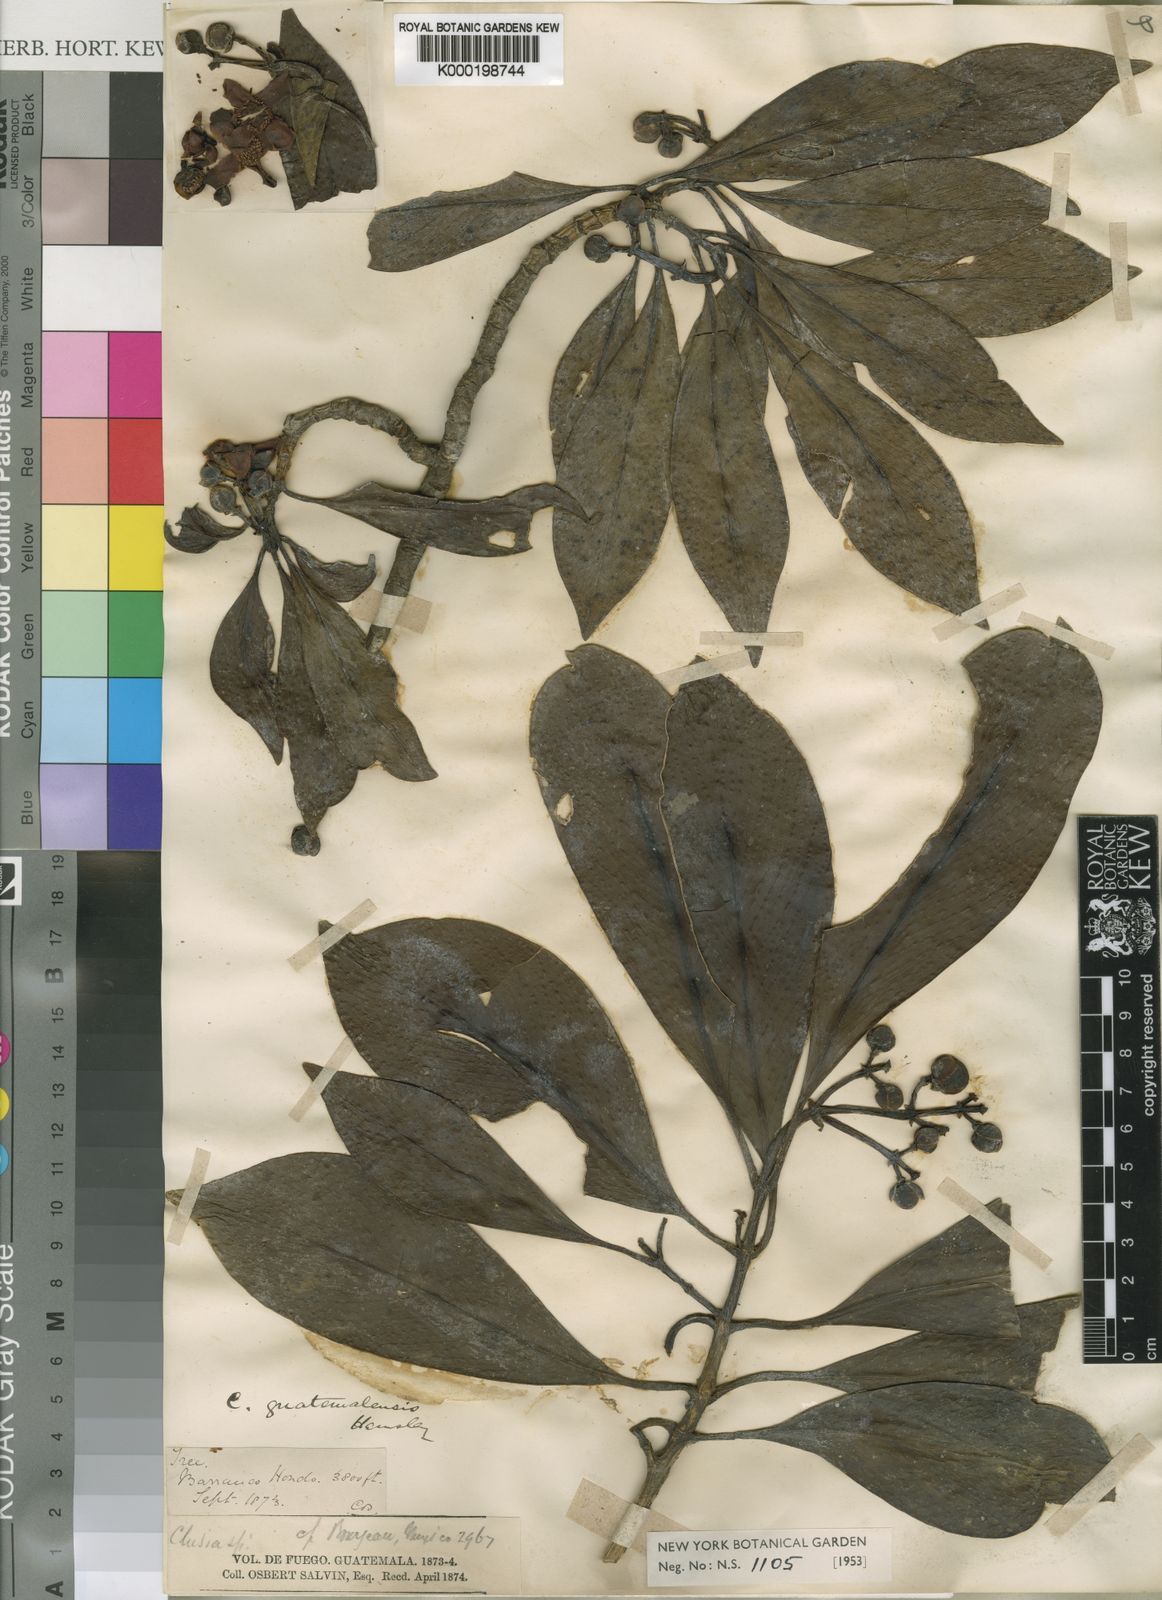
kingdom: Plantae
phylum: Tracheophyta
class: Magnoliopsida
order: Malpighiales
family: Clusiaceae
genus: Clusia
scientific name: Clusia guatemalensis
